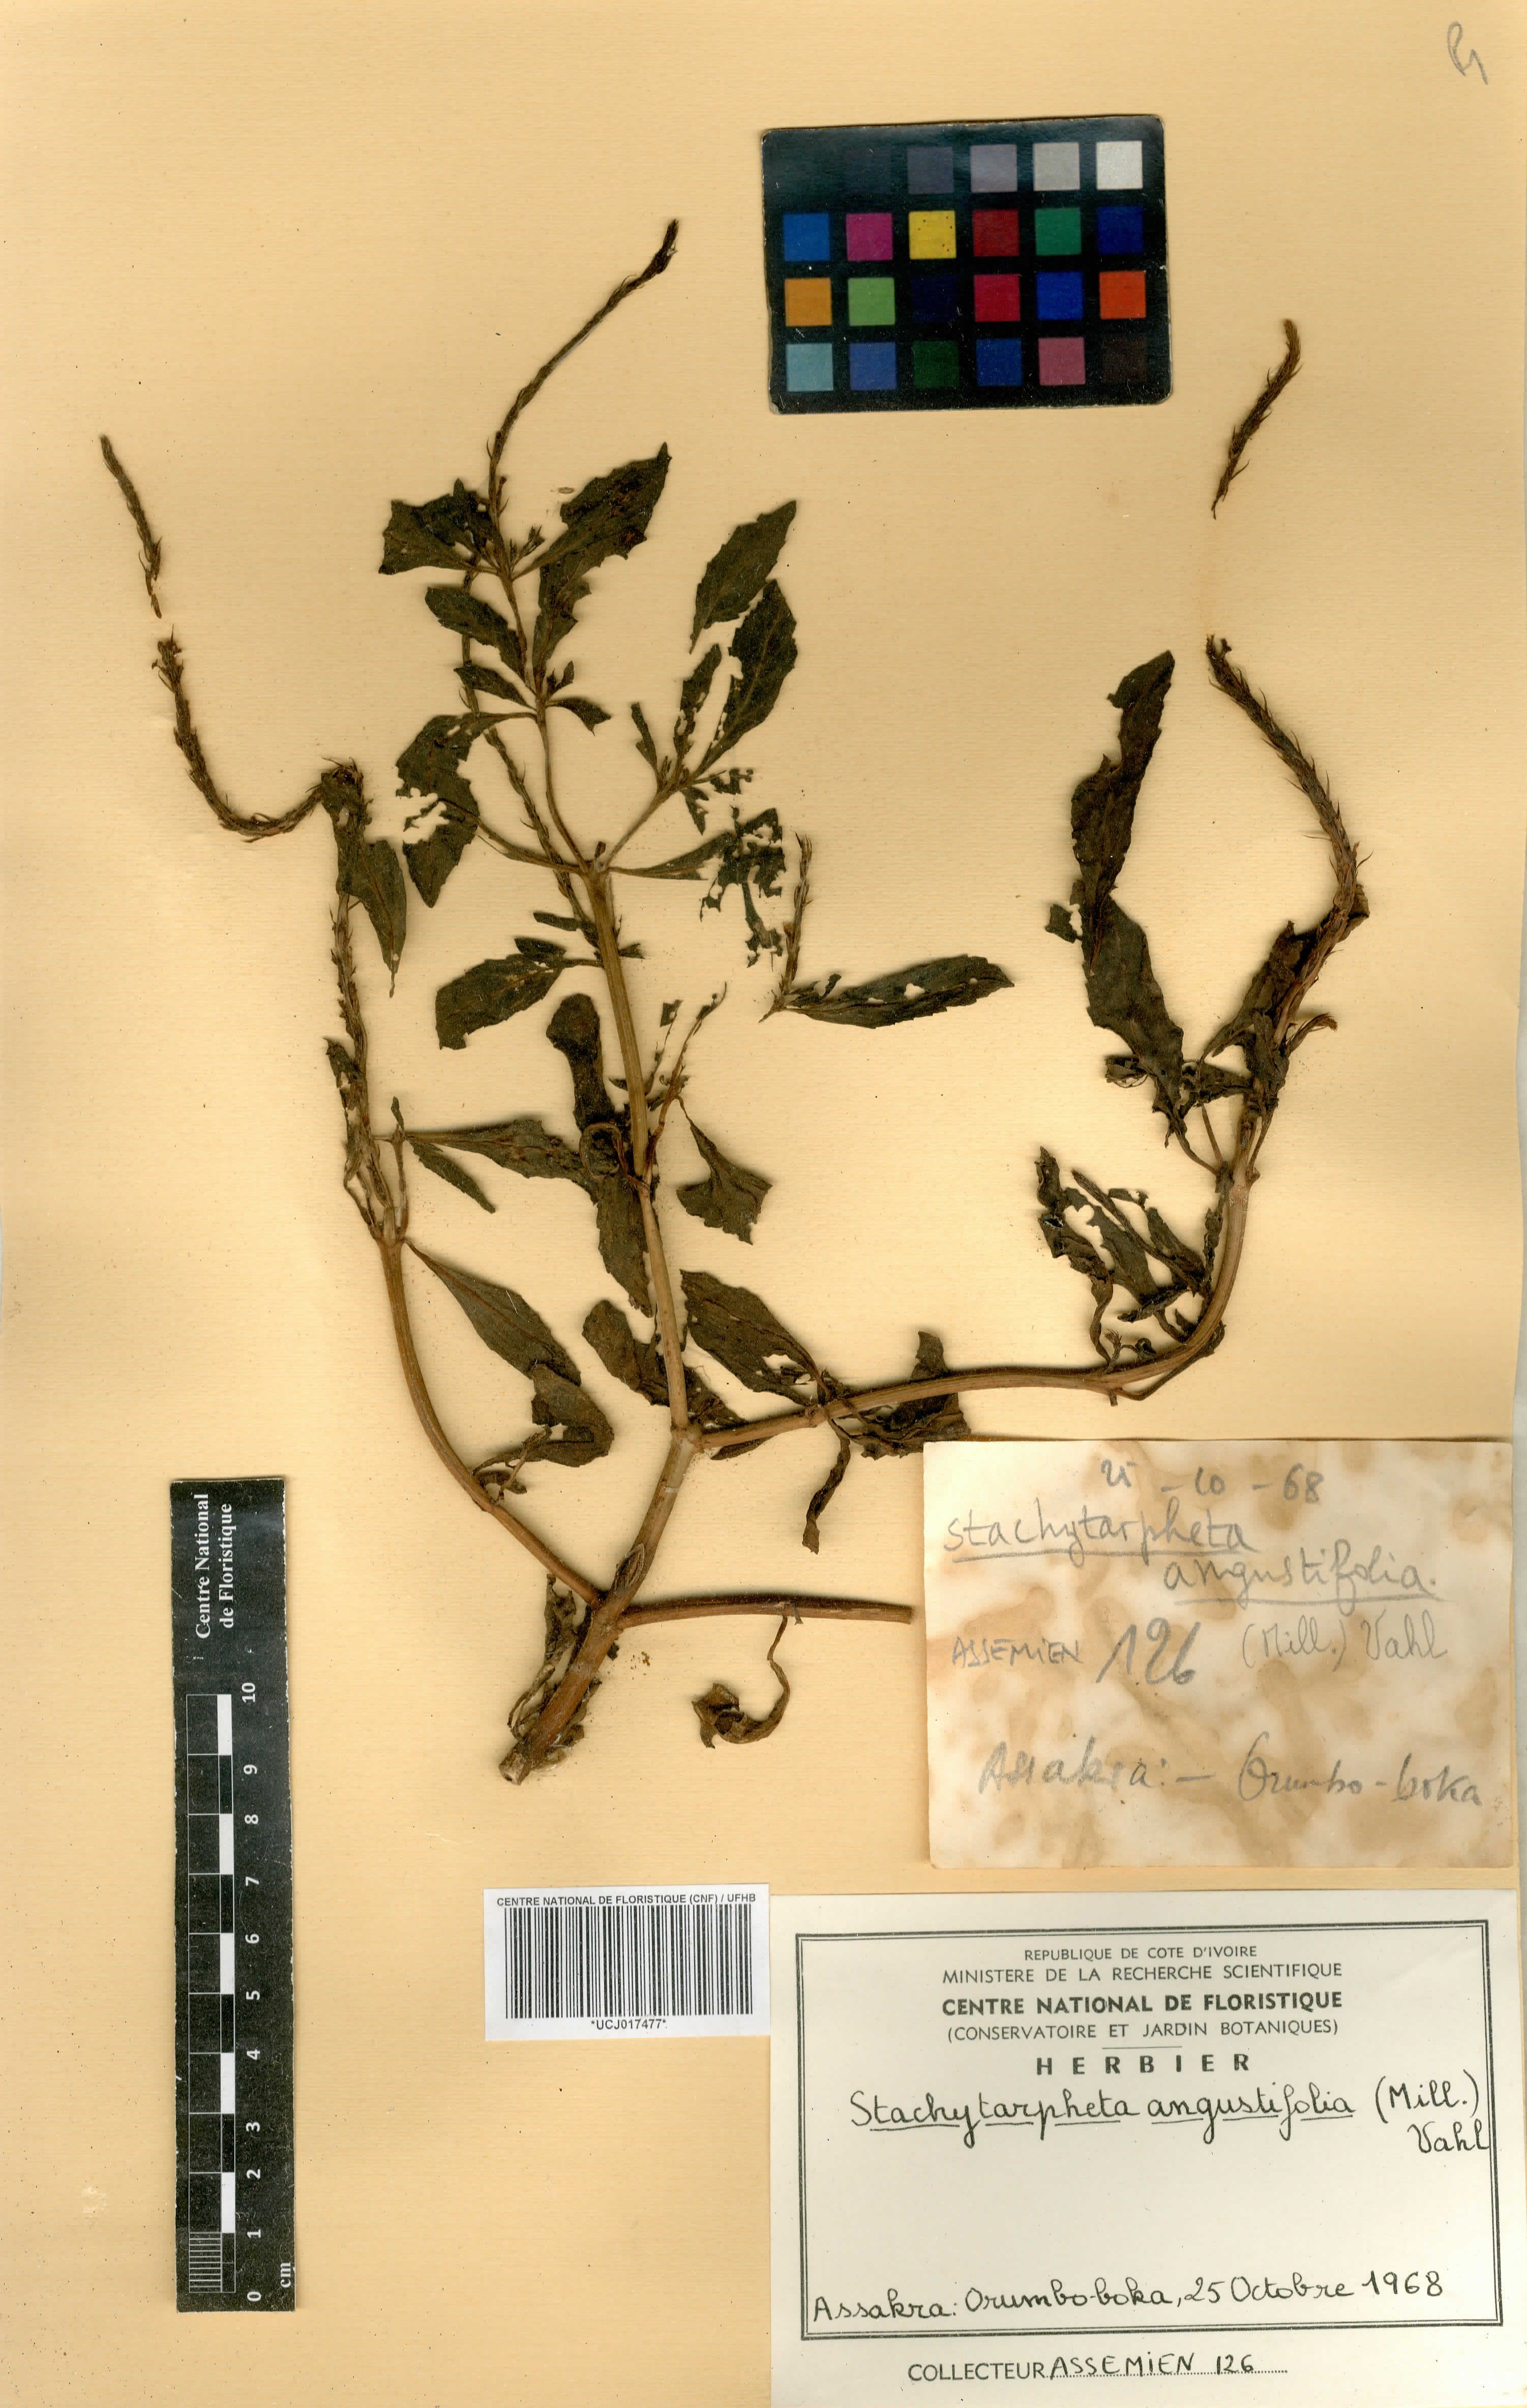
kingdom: Plantae
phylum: Tracheophyta
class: Magnoliopsida
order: Lamiales
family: Verbenaceae
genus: Stachytarpheta
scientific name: Stachytarpheta indica
